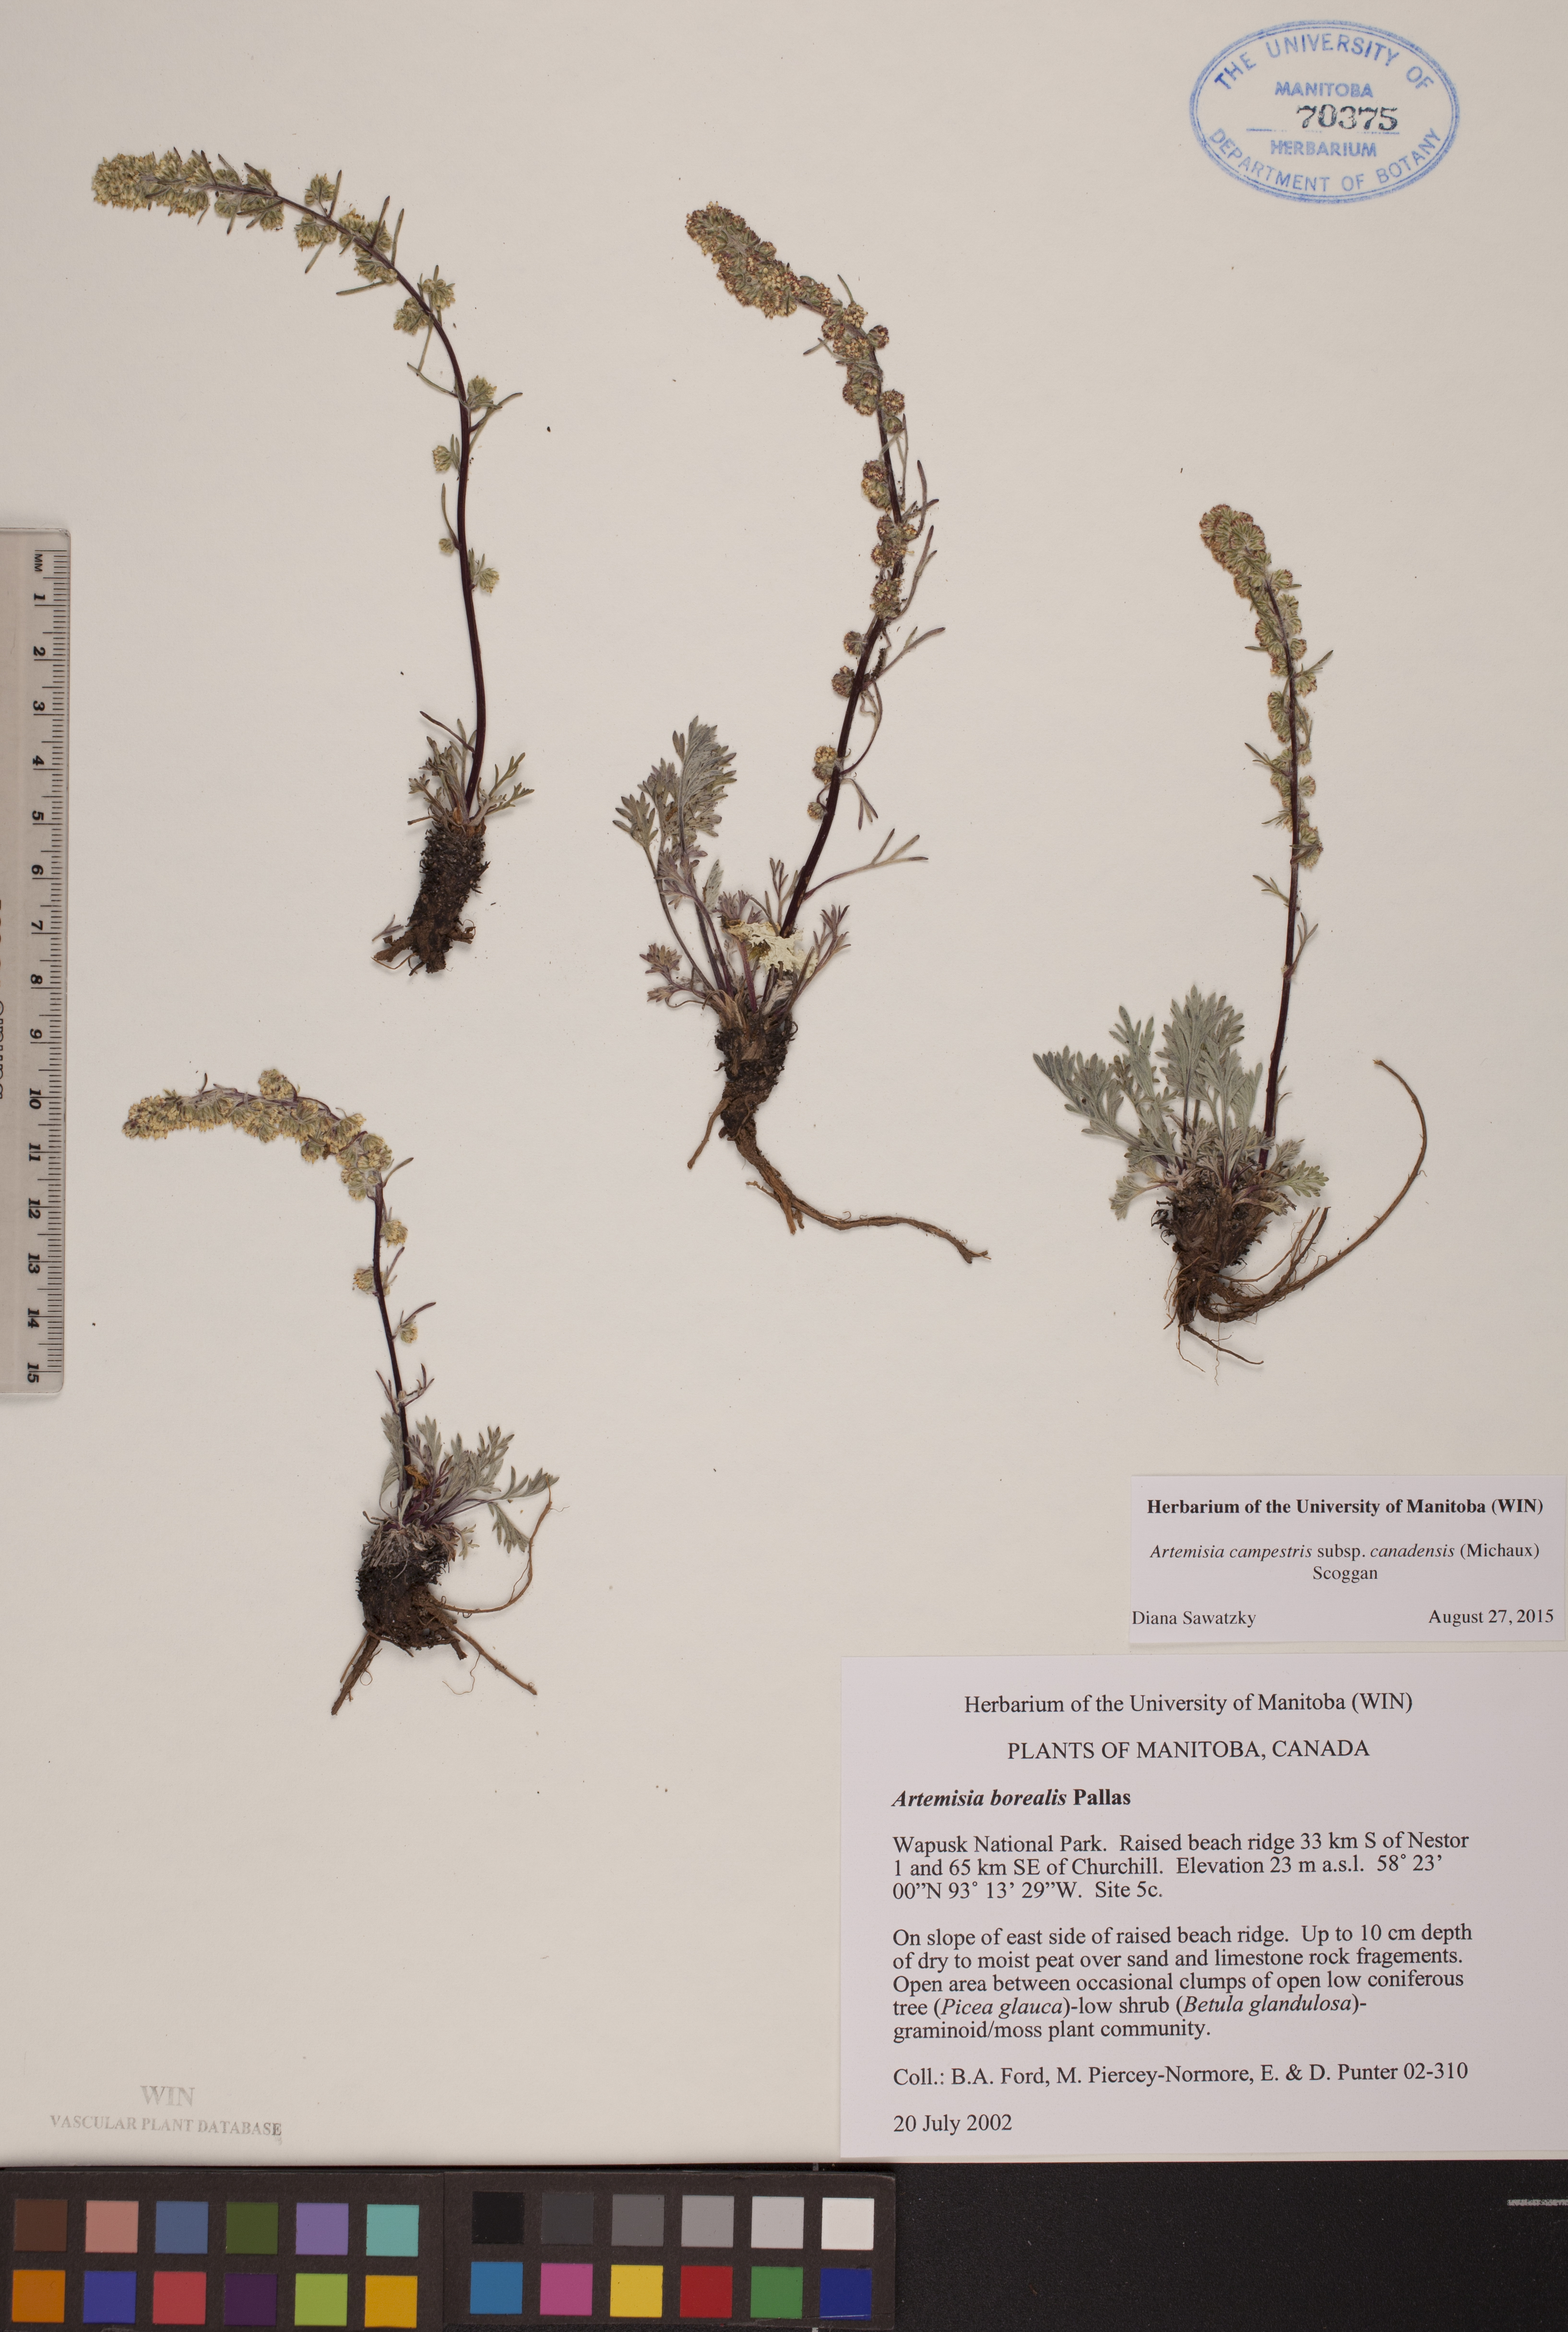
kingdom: Plantae
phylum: Tracheophyta
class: Magnoliopsida
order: Asterales
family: Asteraceae
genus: Artemisia
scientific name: Artemisia campestris
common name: Field wormwood
